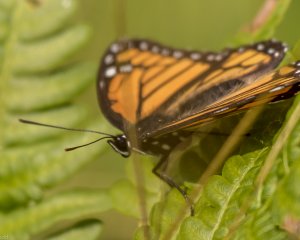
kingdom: Animalia
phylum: Arthropoda
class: Insecta
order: Lepidoptera
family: Nymphalidae
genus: Limenitis
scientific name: Limenitis archippus
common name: Viceroy
